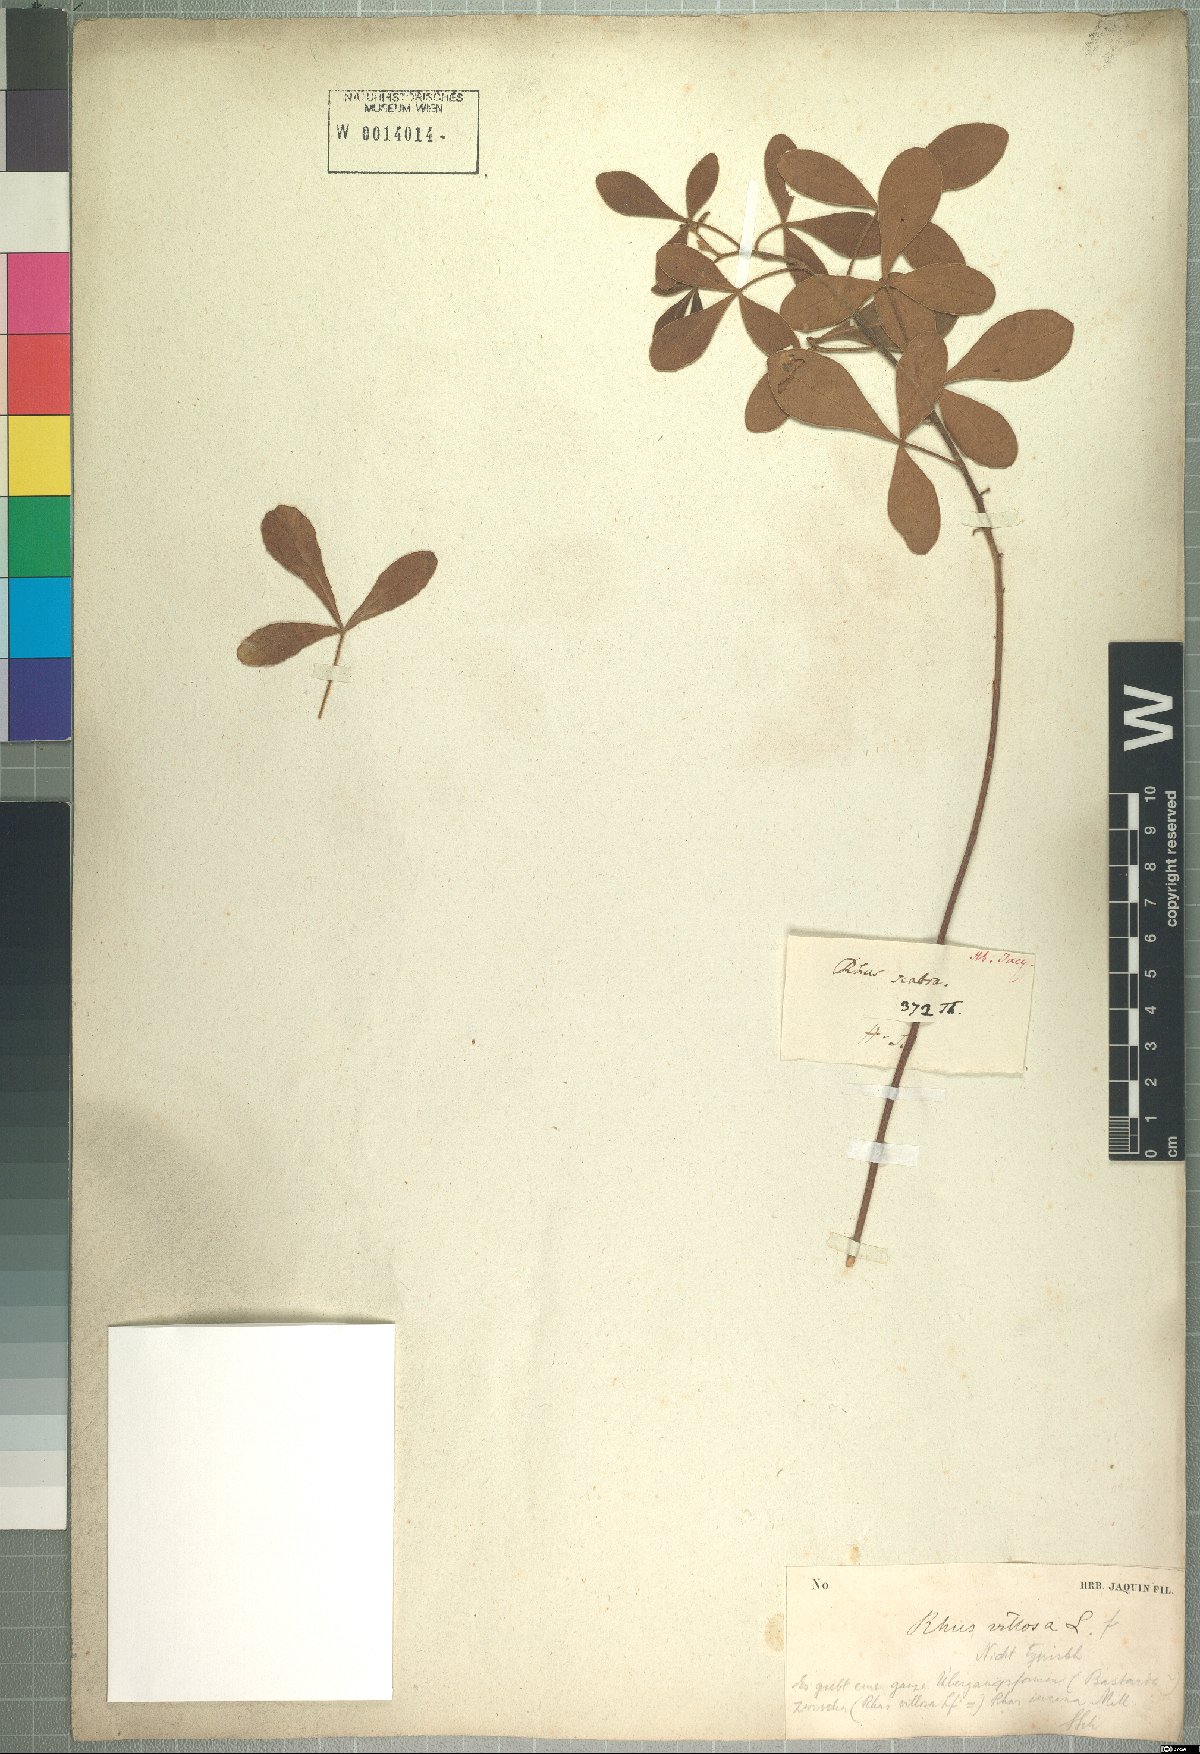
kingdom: Plantae
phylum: Tracheophyta
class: Magnoliopsida
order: Sapindales
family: Anacardiaceae
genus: Searsia
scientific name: Searsia laevigata
